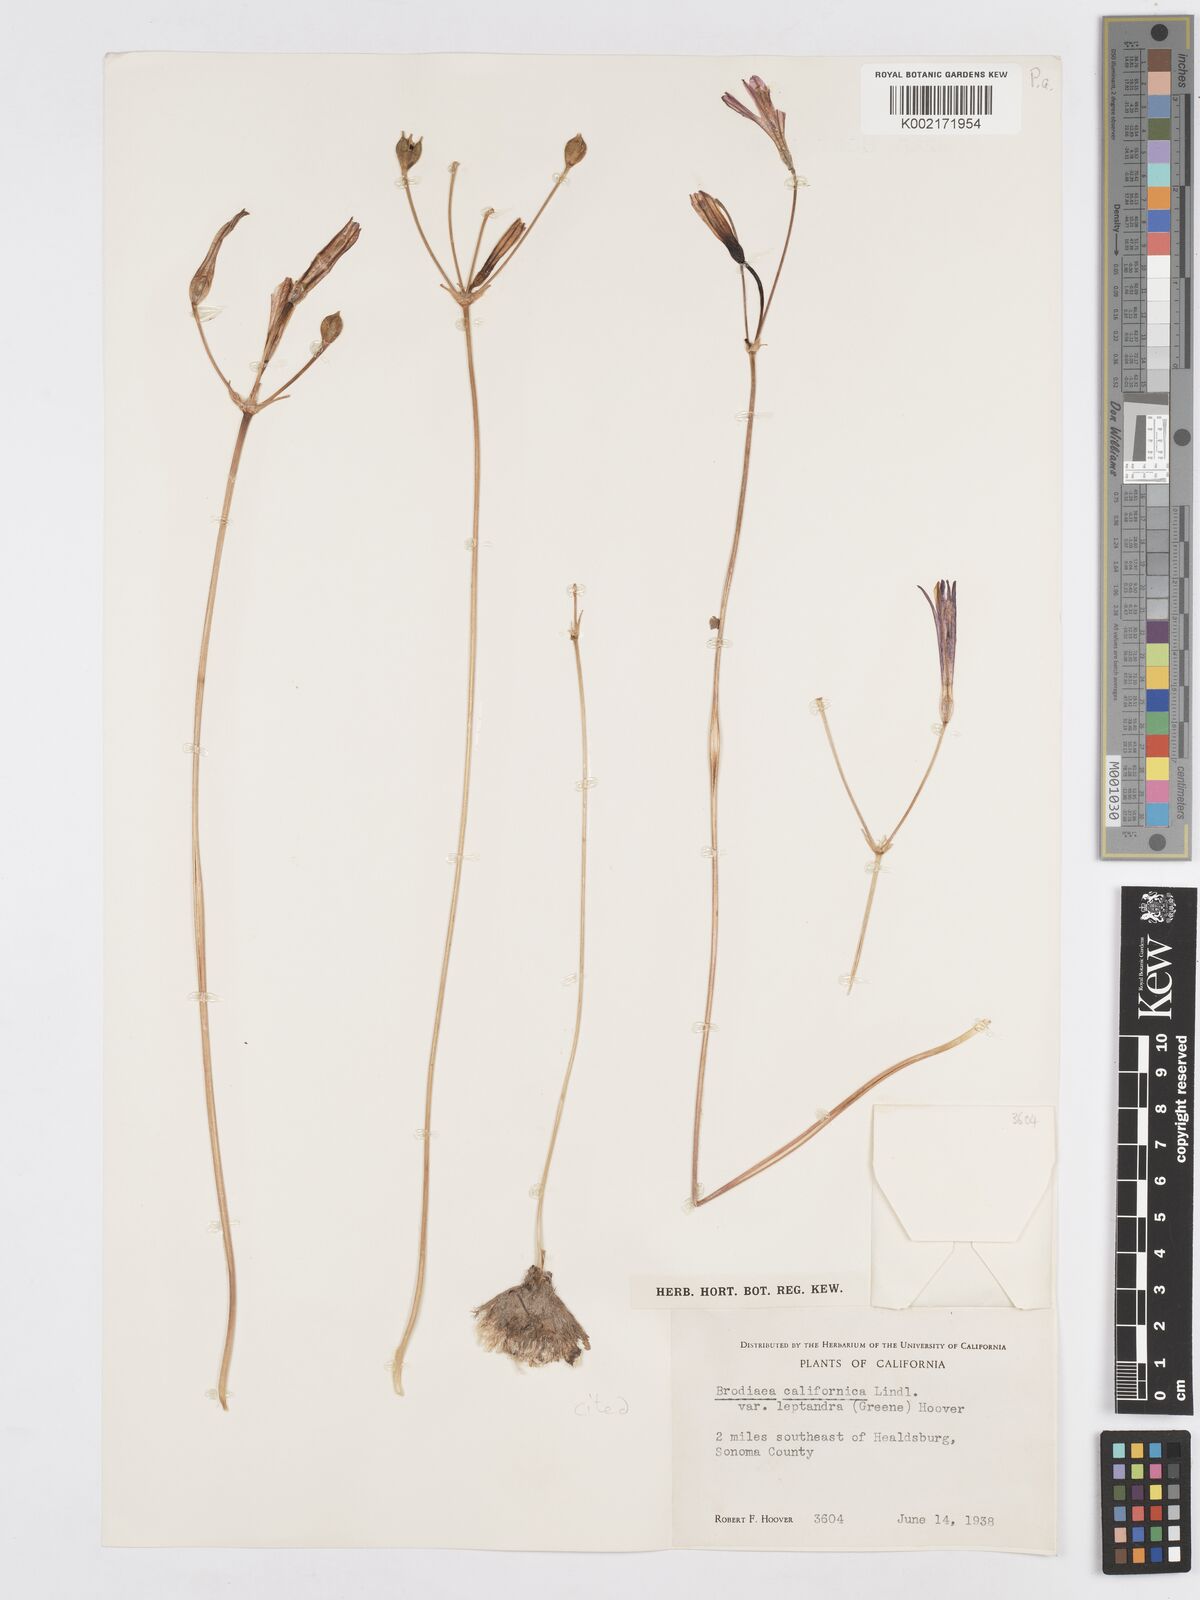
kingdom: Plantae
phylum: Tracheophyta
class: Liliopsida
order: Asparagales
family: Asparagaceae
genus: Brodiaea
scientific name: Brodiaea californica
